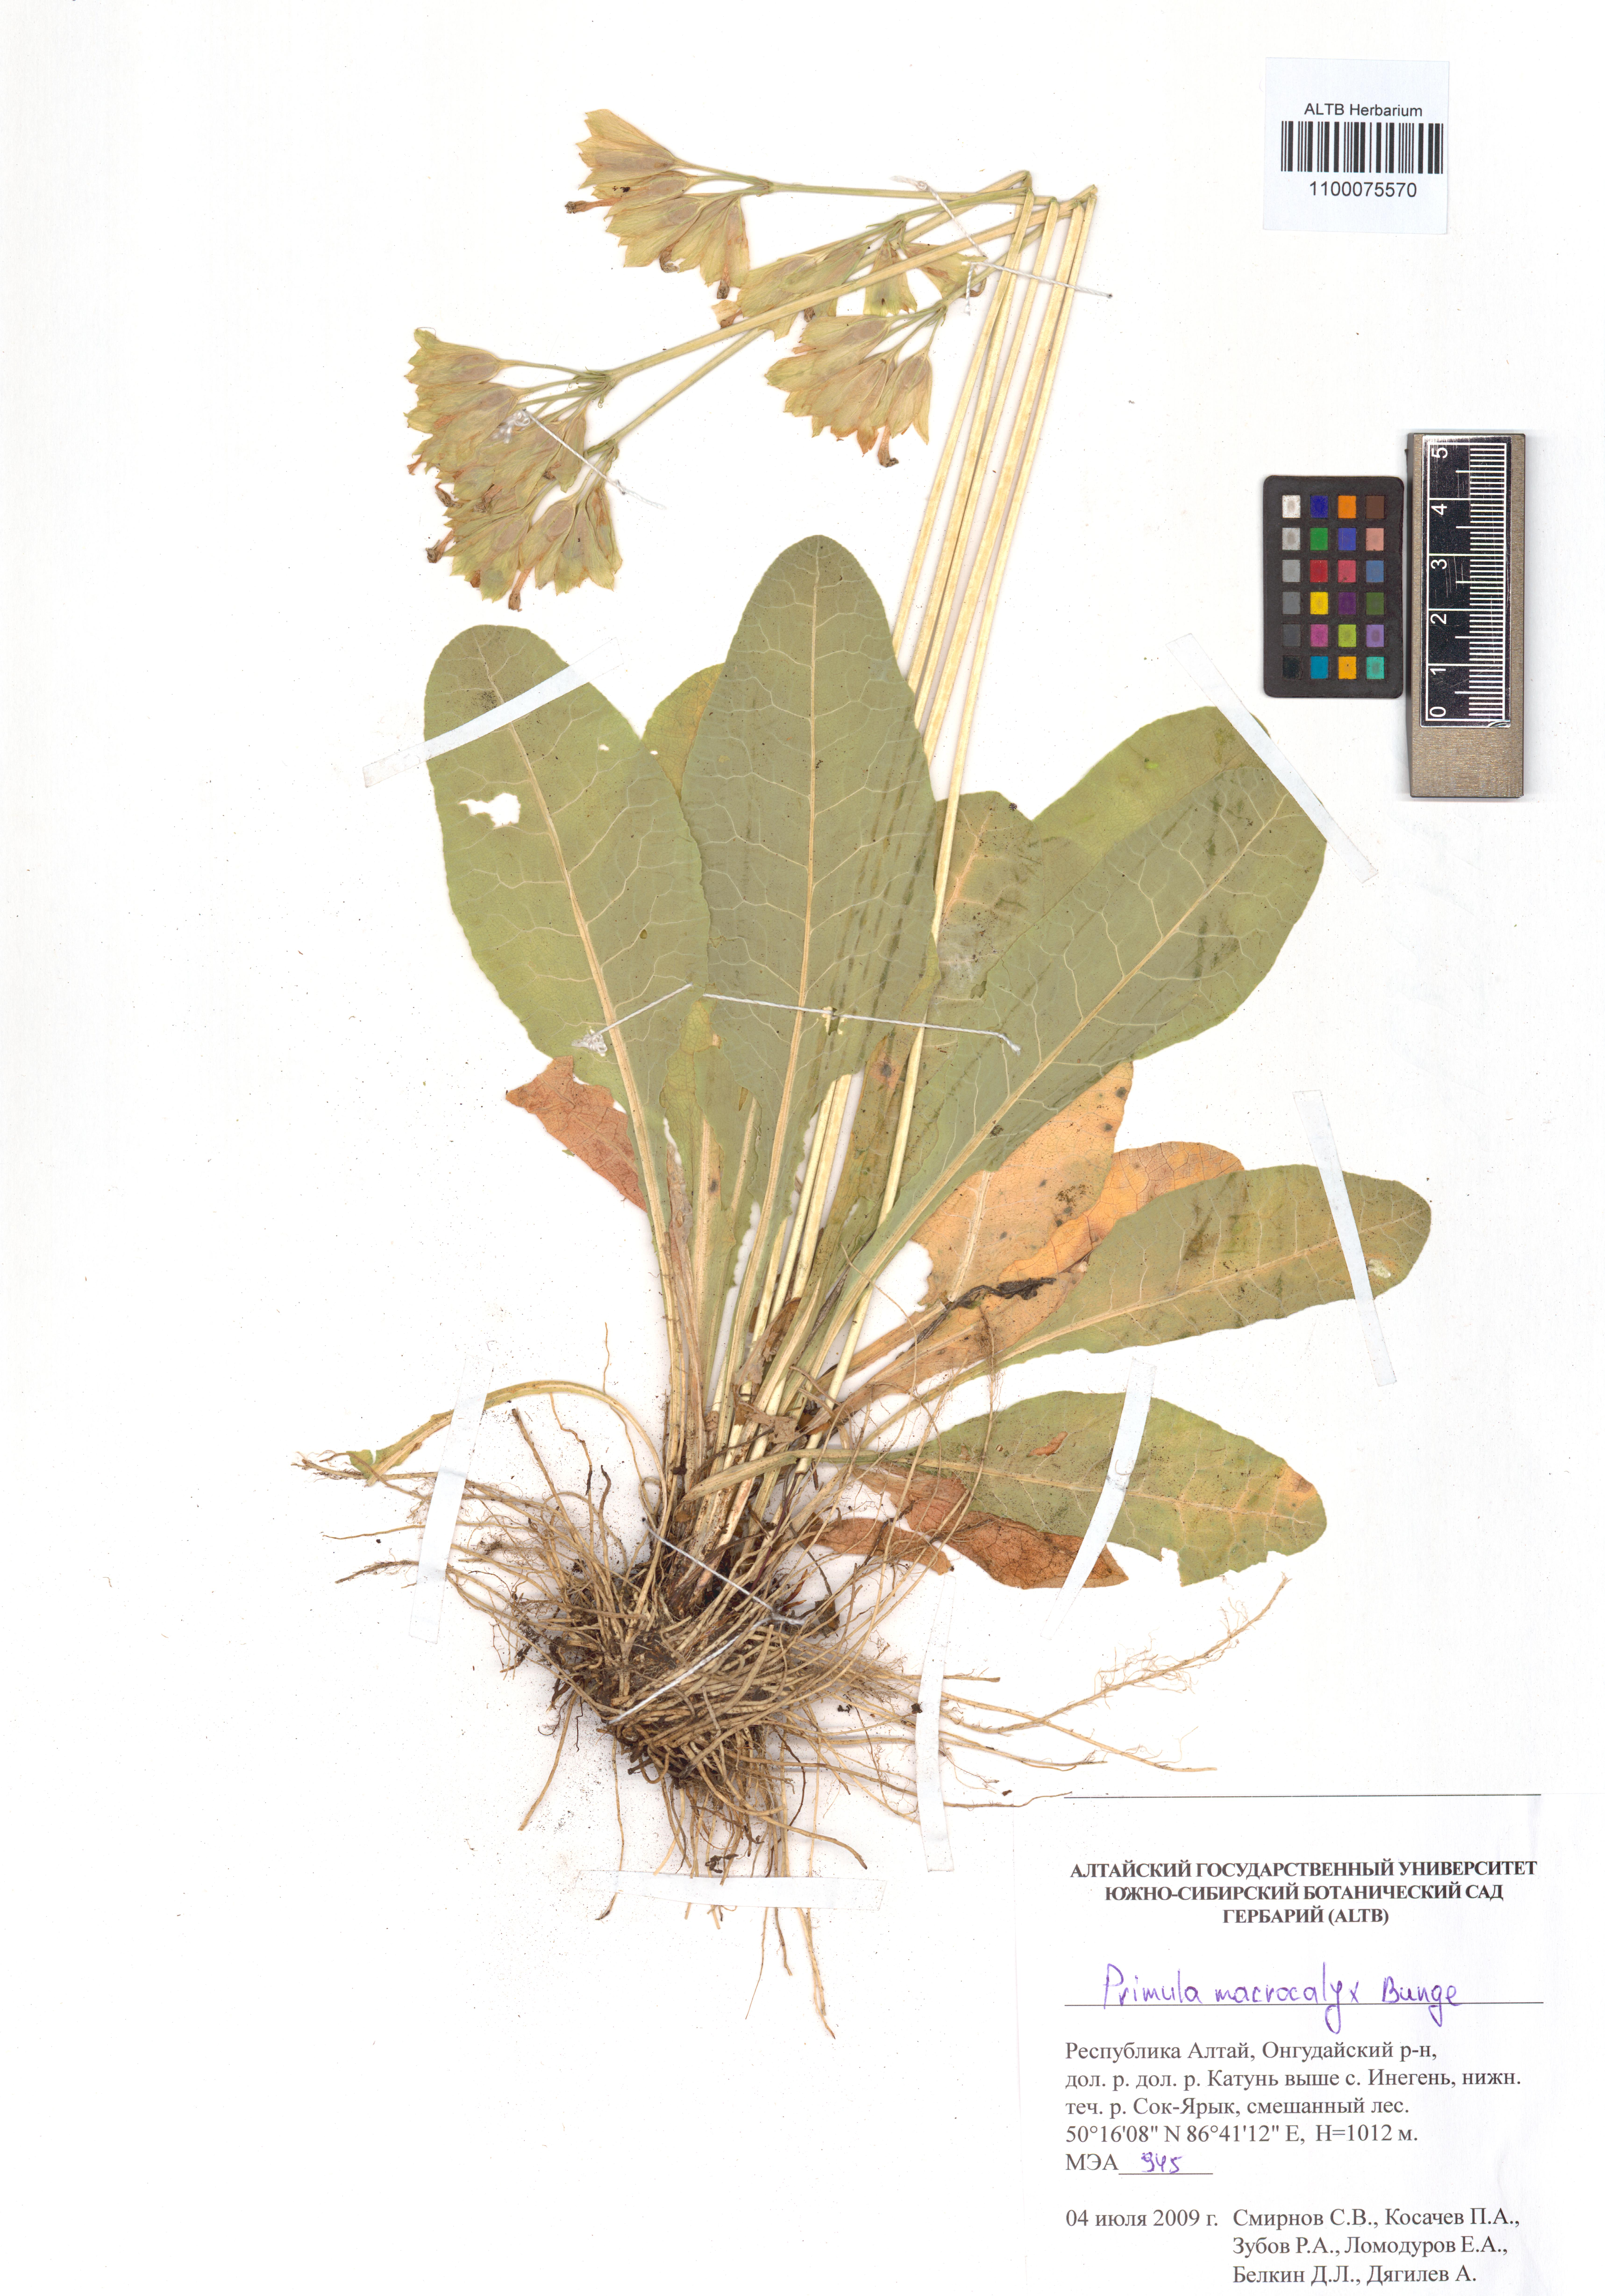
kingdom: Plantae
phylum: Tracheophyta
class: Magnoliopsida
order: Ericales
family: Primulaceae
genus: Primula
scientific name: Primula veris
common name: Cowslip
